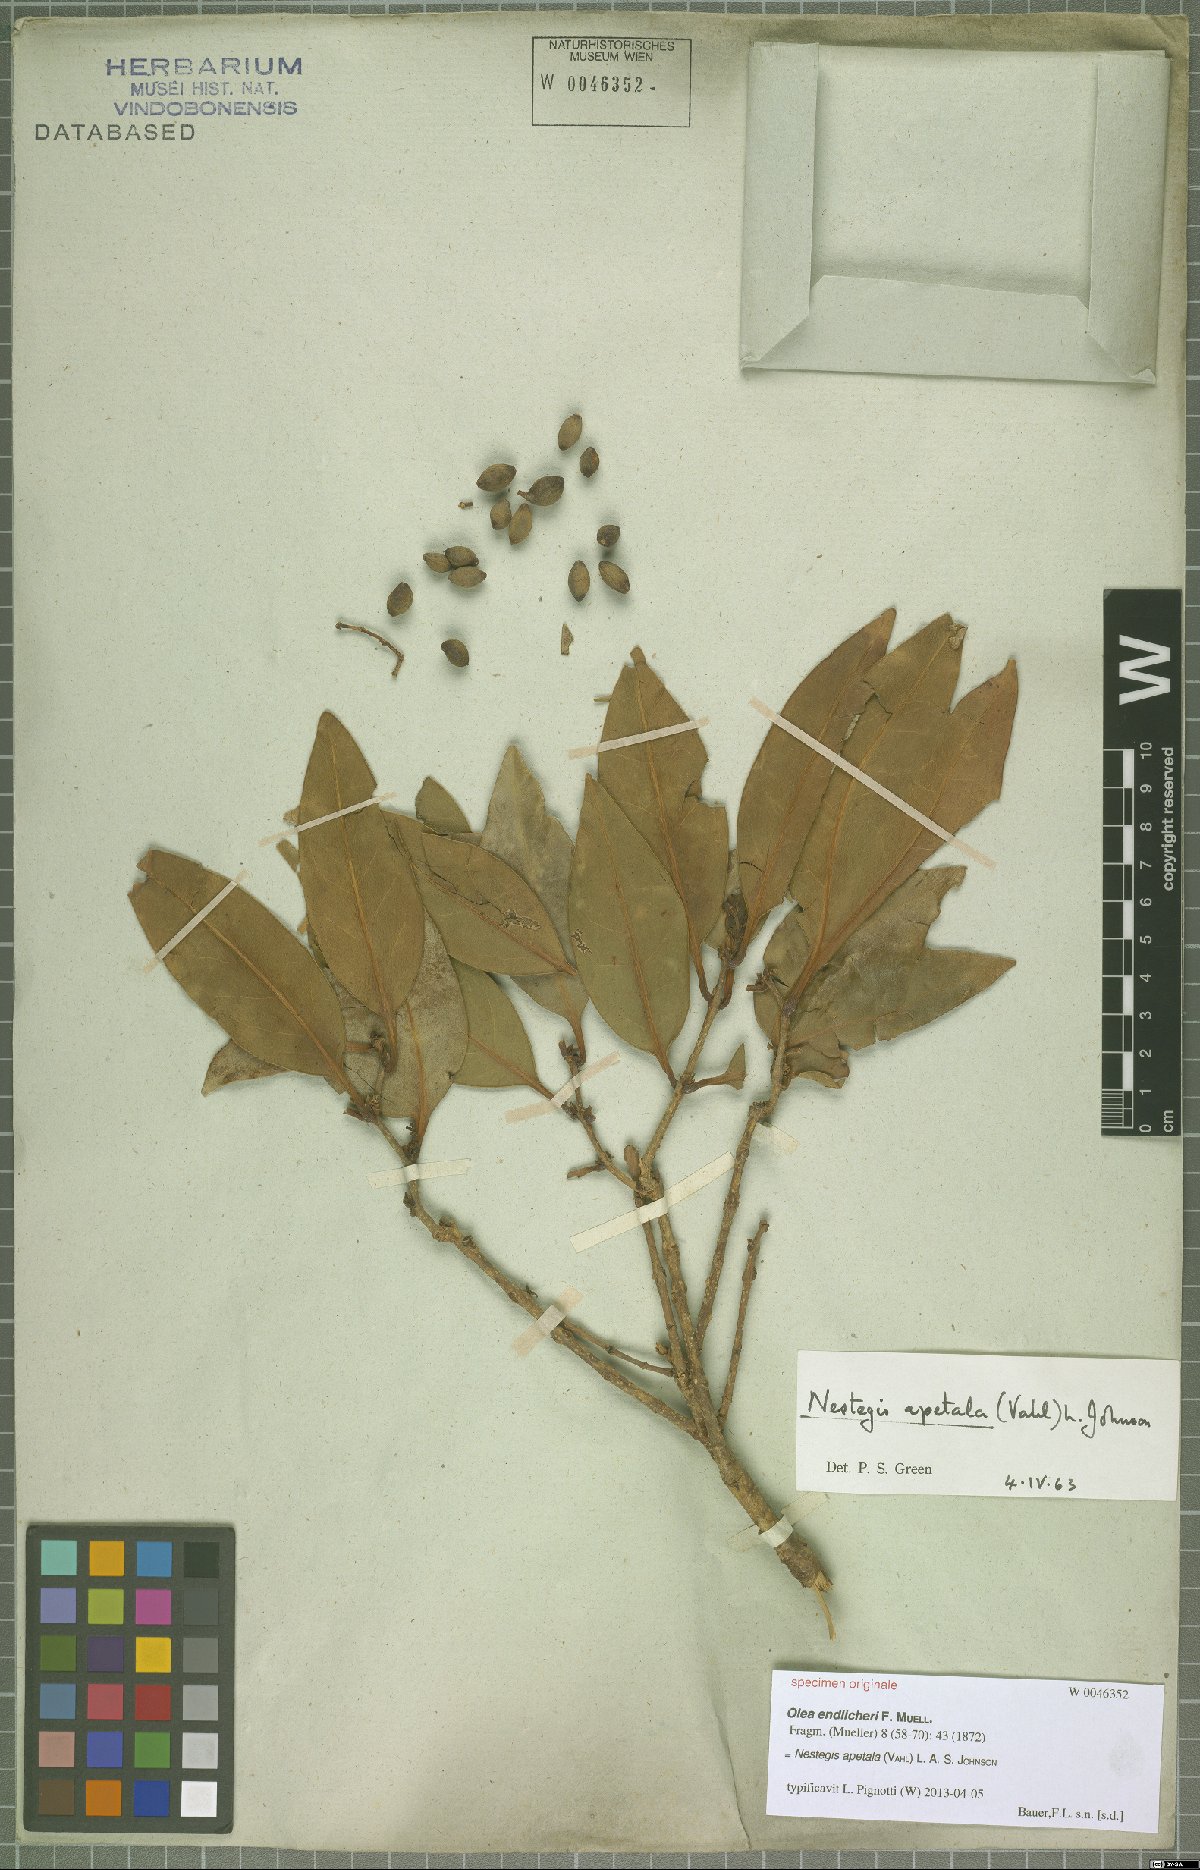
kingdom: Plantae
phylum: Tracheophyta
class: Magnoliopsida
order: Lamiales
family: Oleaceae
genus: Nestegis
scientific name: Nestegis apetala
